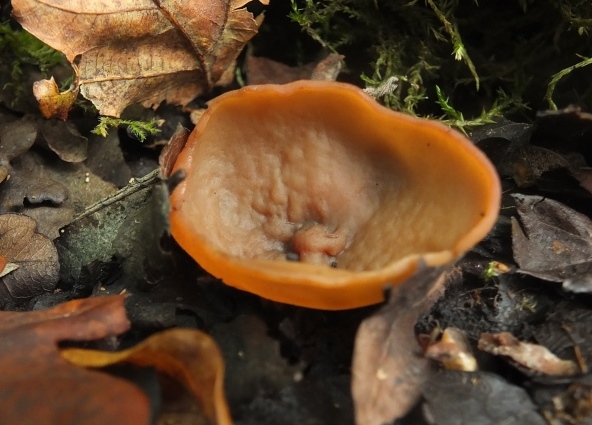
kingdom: Fungi
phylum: Ascomycota
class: Pezizomycetes
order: Pezizales
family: Pezizaceae
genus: Legaliana
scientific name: Legaliana limnaea
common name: mose-bægersvamp
